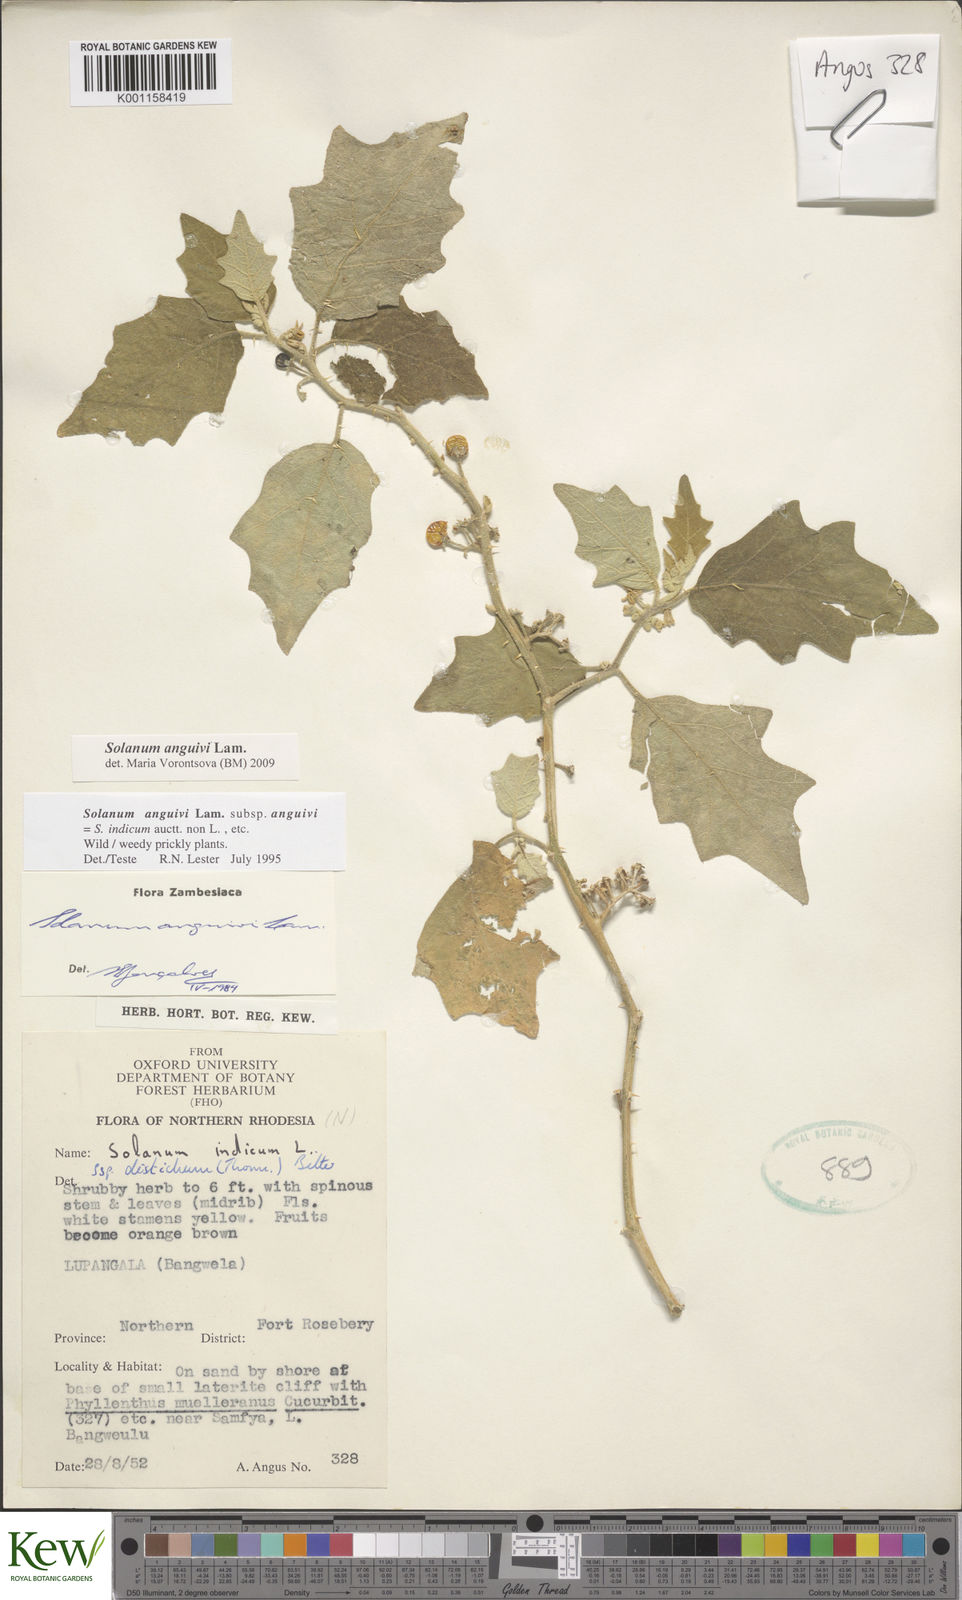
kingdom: Plantae
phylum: Tracheophyta
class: Magnoliopsida
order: Solanales
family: Solanaceae
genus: Solanum
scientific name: Solanum anguivi
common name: Forest bitterberry
